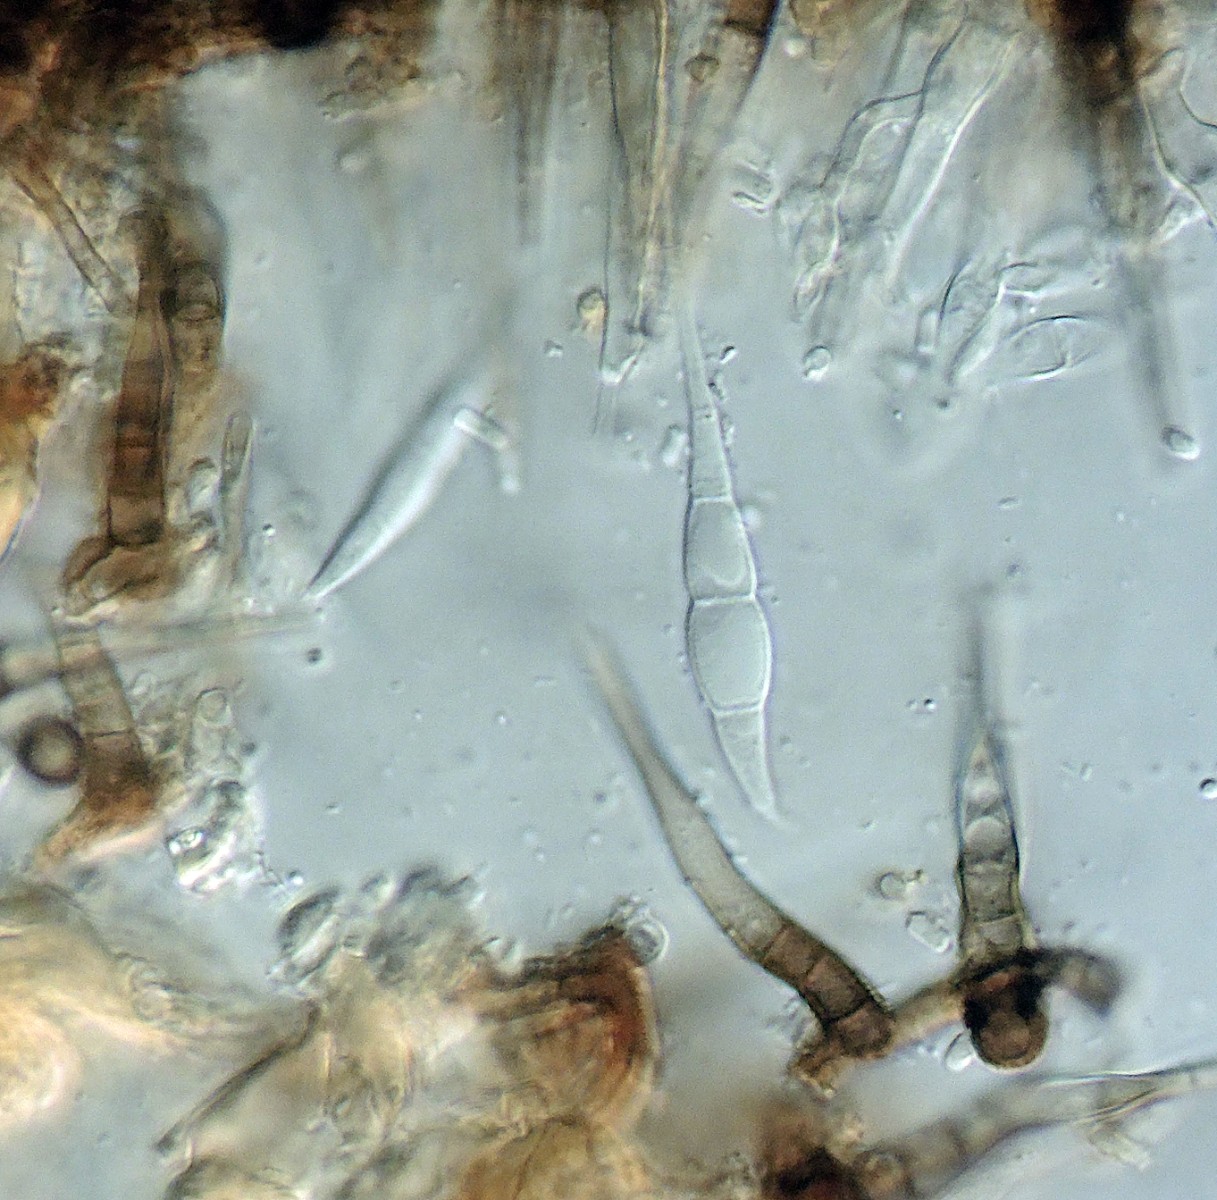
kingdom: Fungi
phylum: Ascomycota
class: Leotiomycetes
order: Helotiales
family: Pezizellaceae
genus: Chalara
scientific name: Chalara pseudoaffinis
